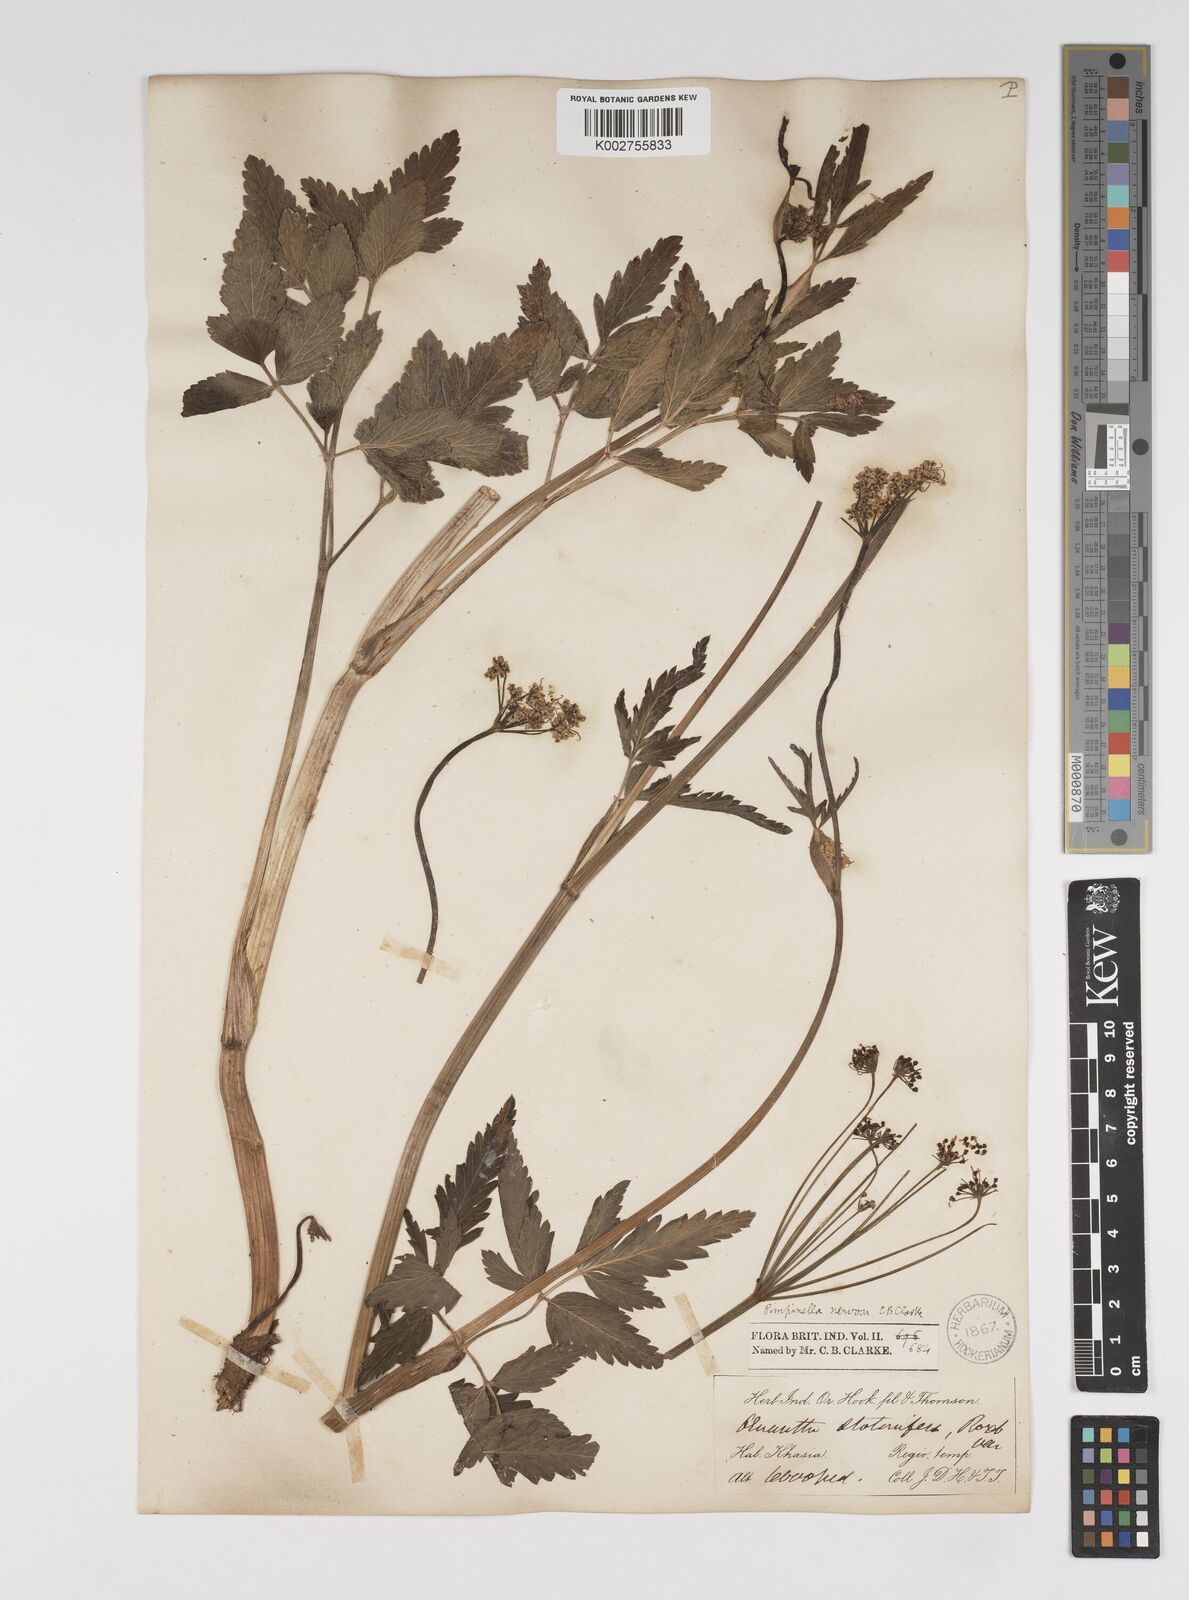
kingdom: Plantae
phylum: Tracheophyta
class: Magnoliopsida
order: Apiales
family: Apiaceae
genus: Pimpinella
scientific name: Pimpinella nervosa
